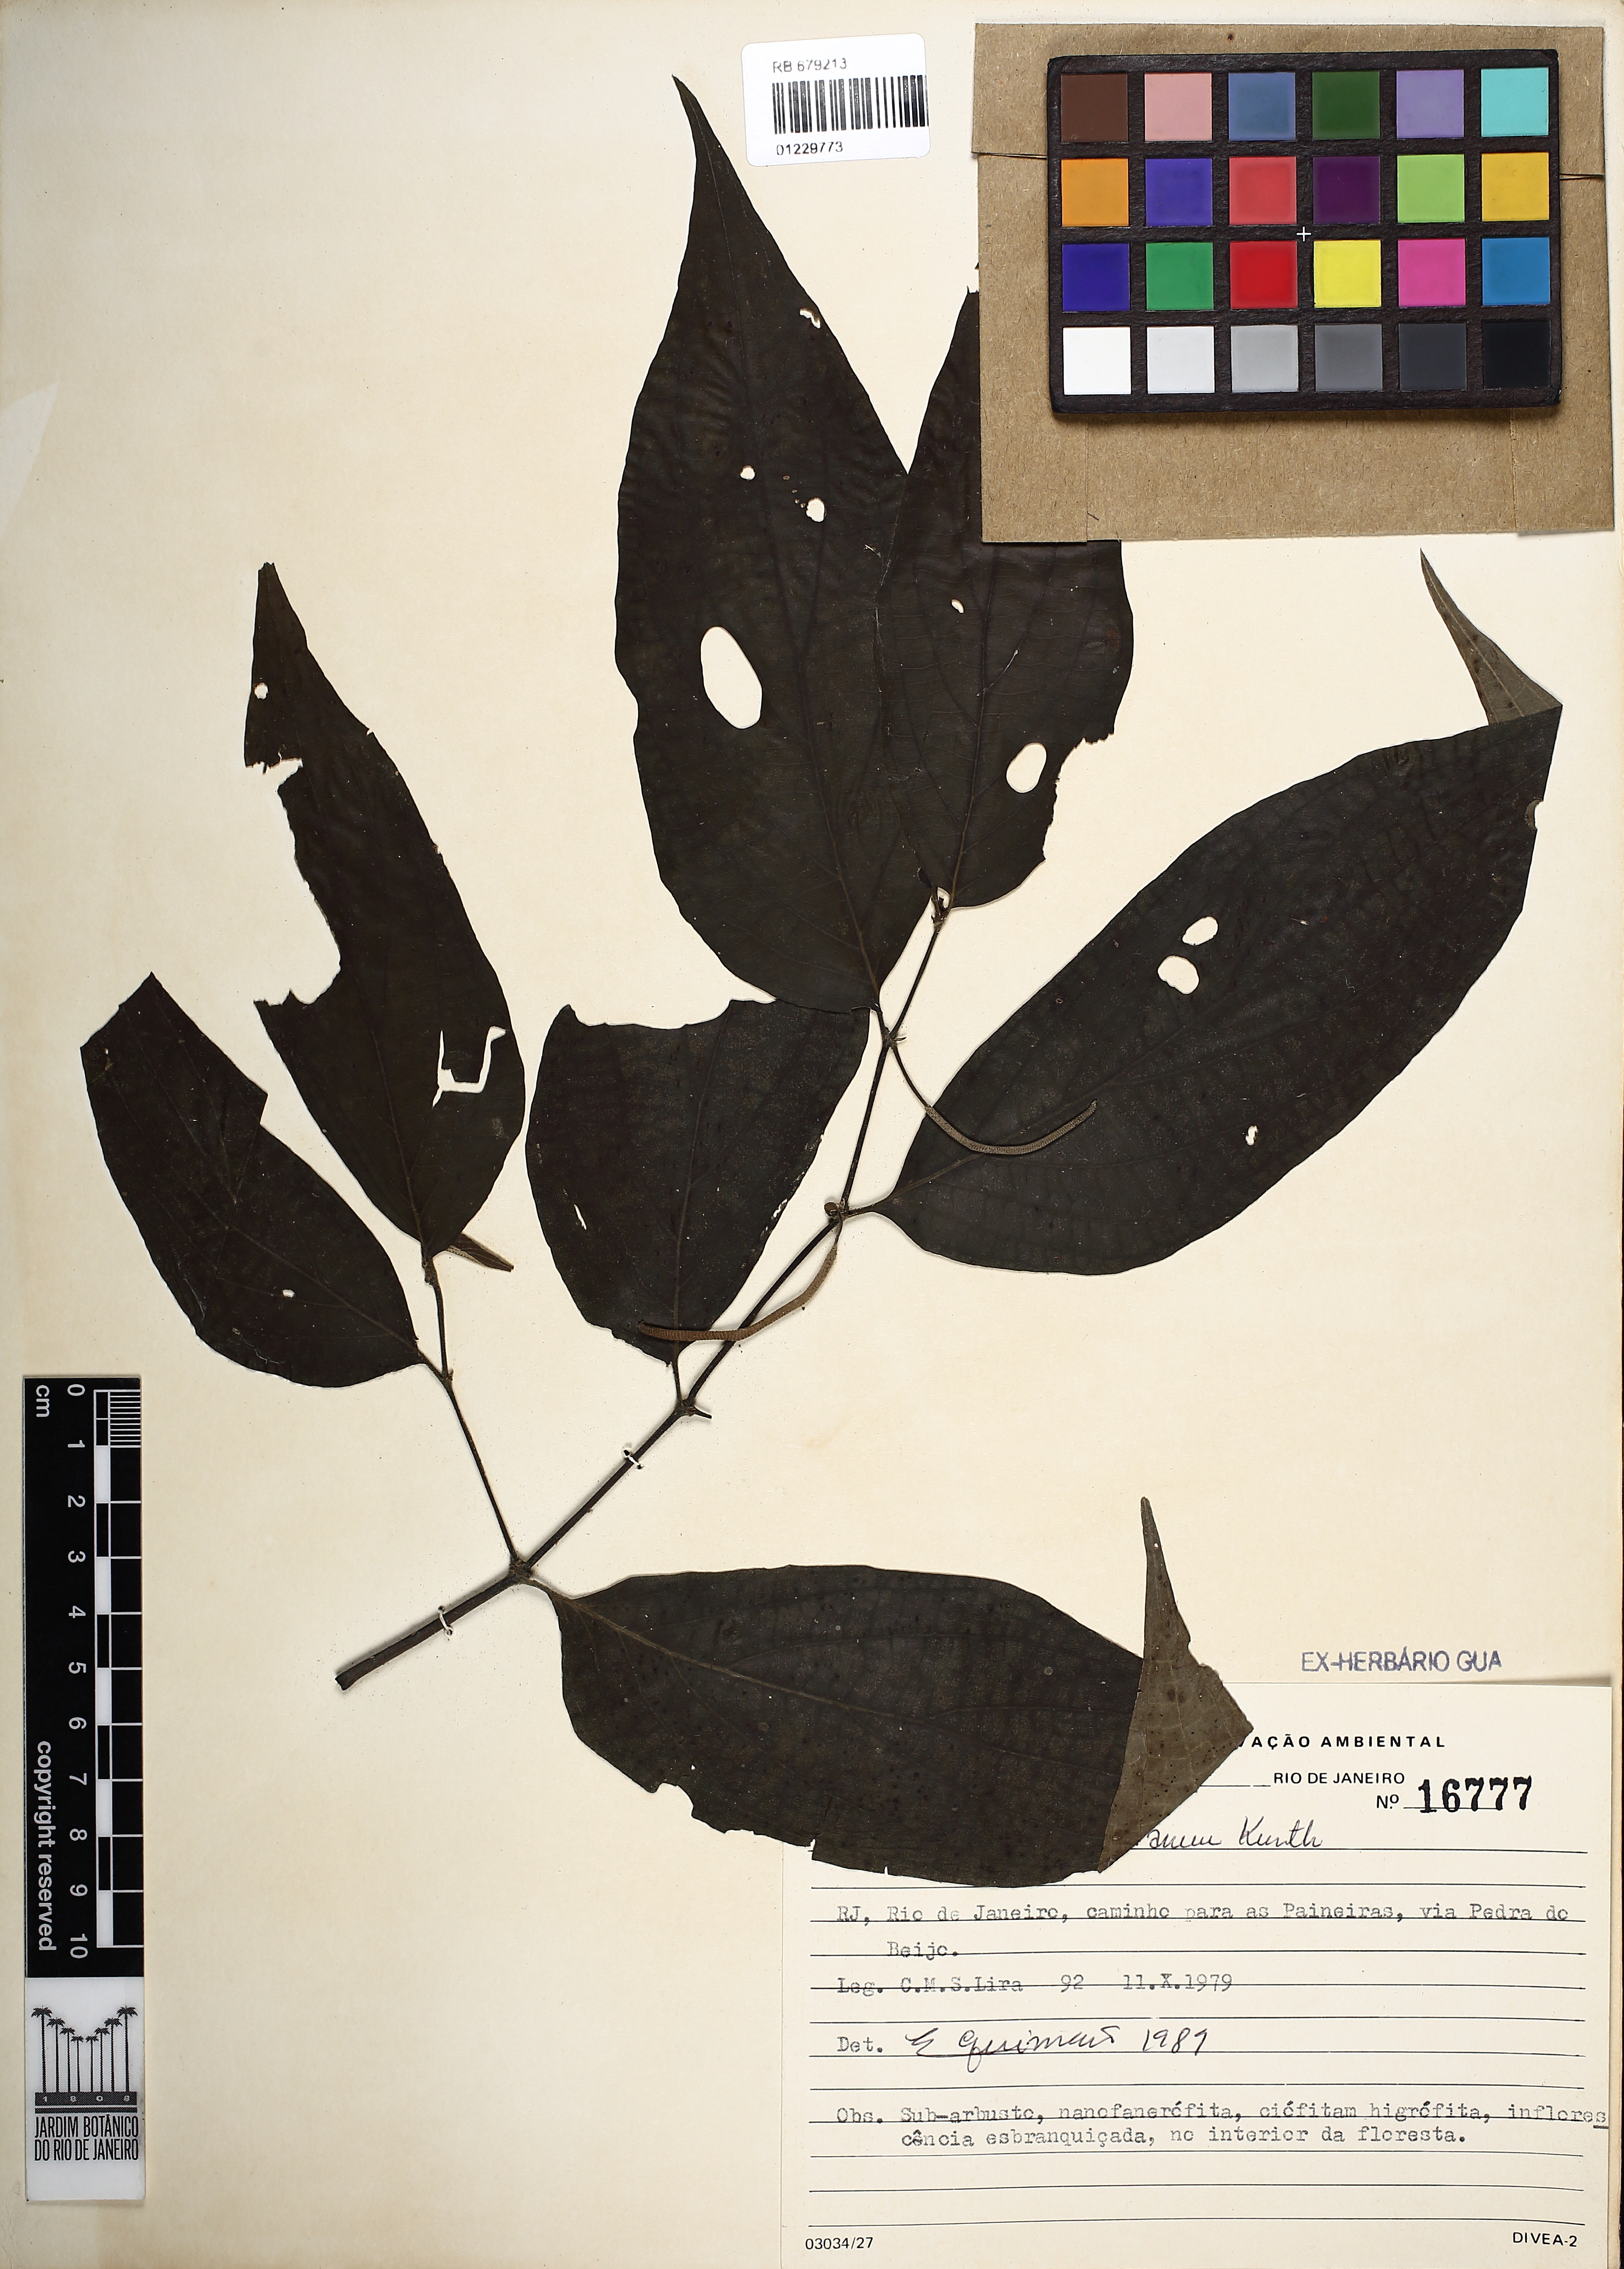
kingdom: Plantae
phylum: Tracheophyta
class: Magnoliopsida
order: Piperales
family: Piperaceae
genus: Piper
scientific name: Piper gaudichaudianum
